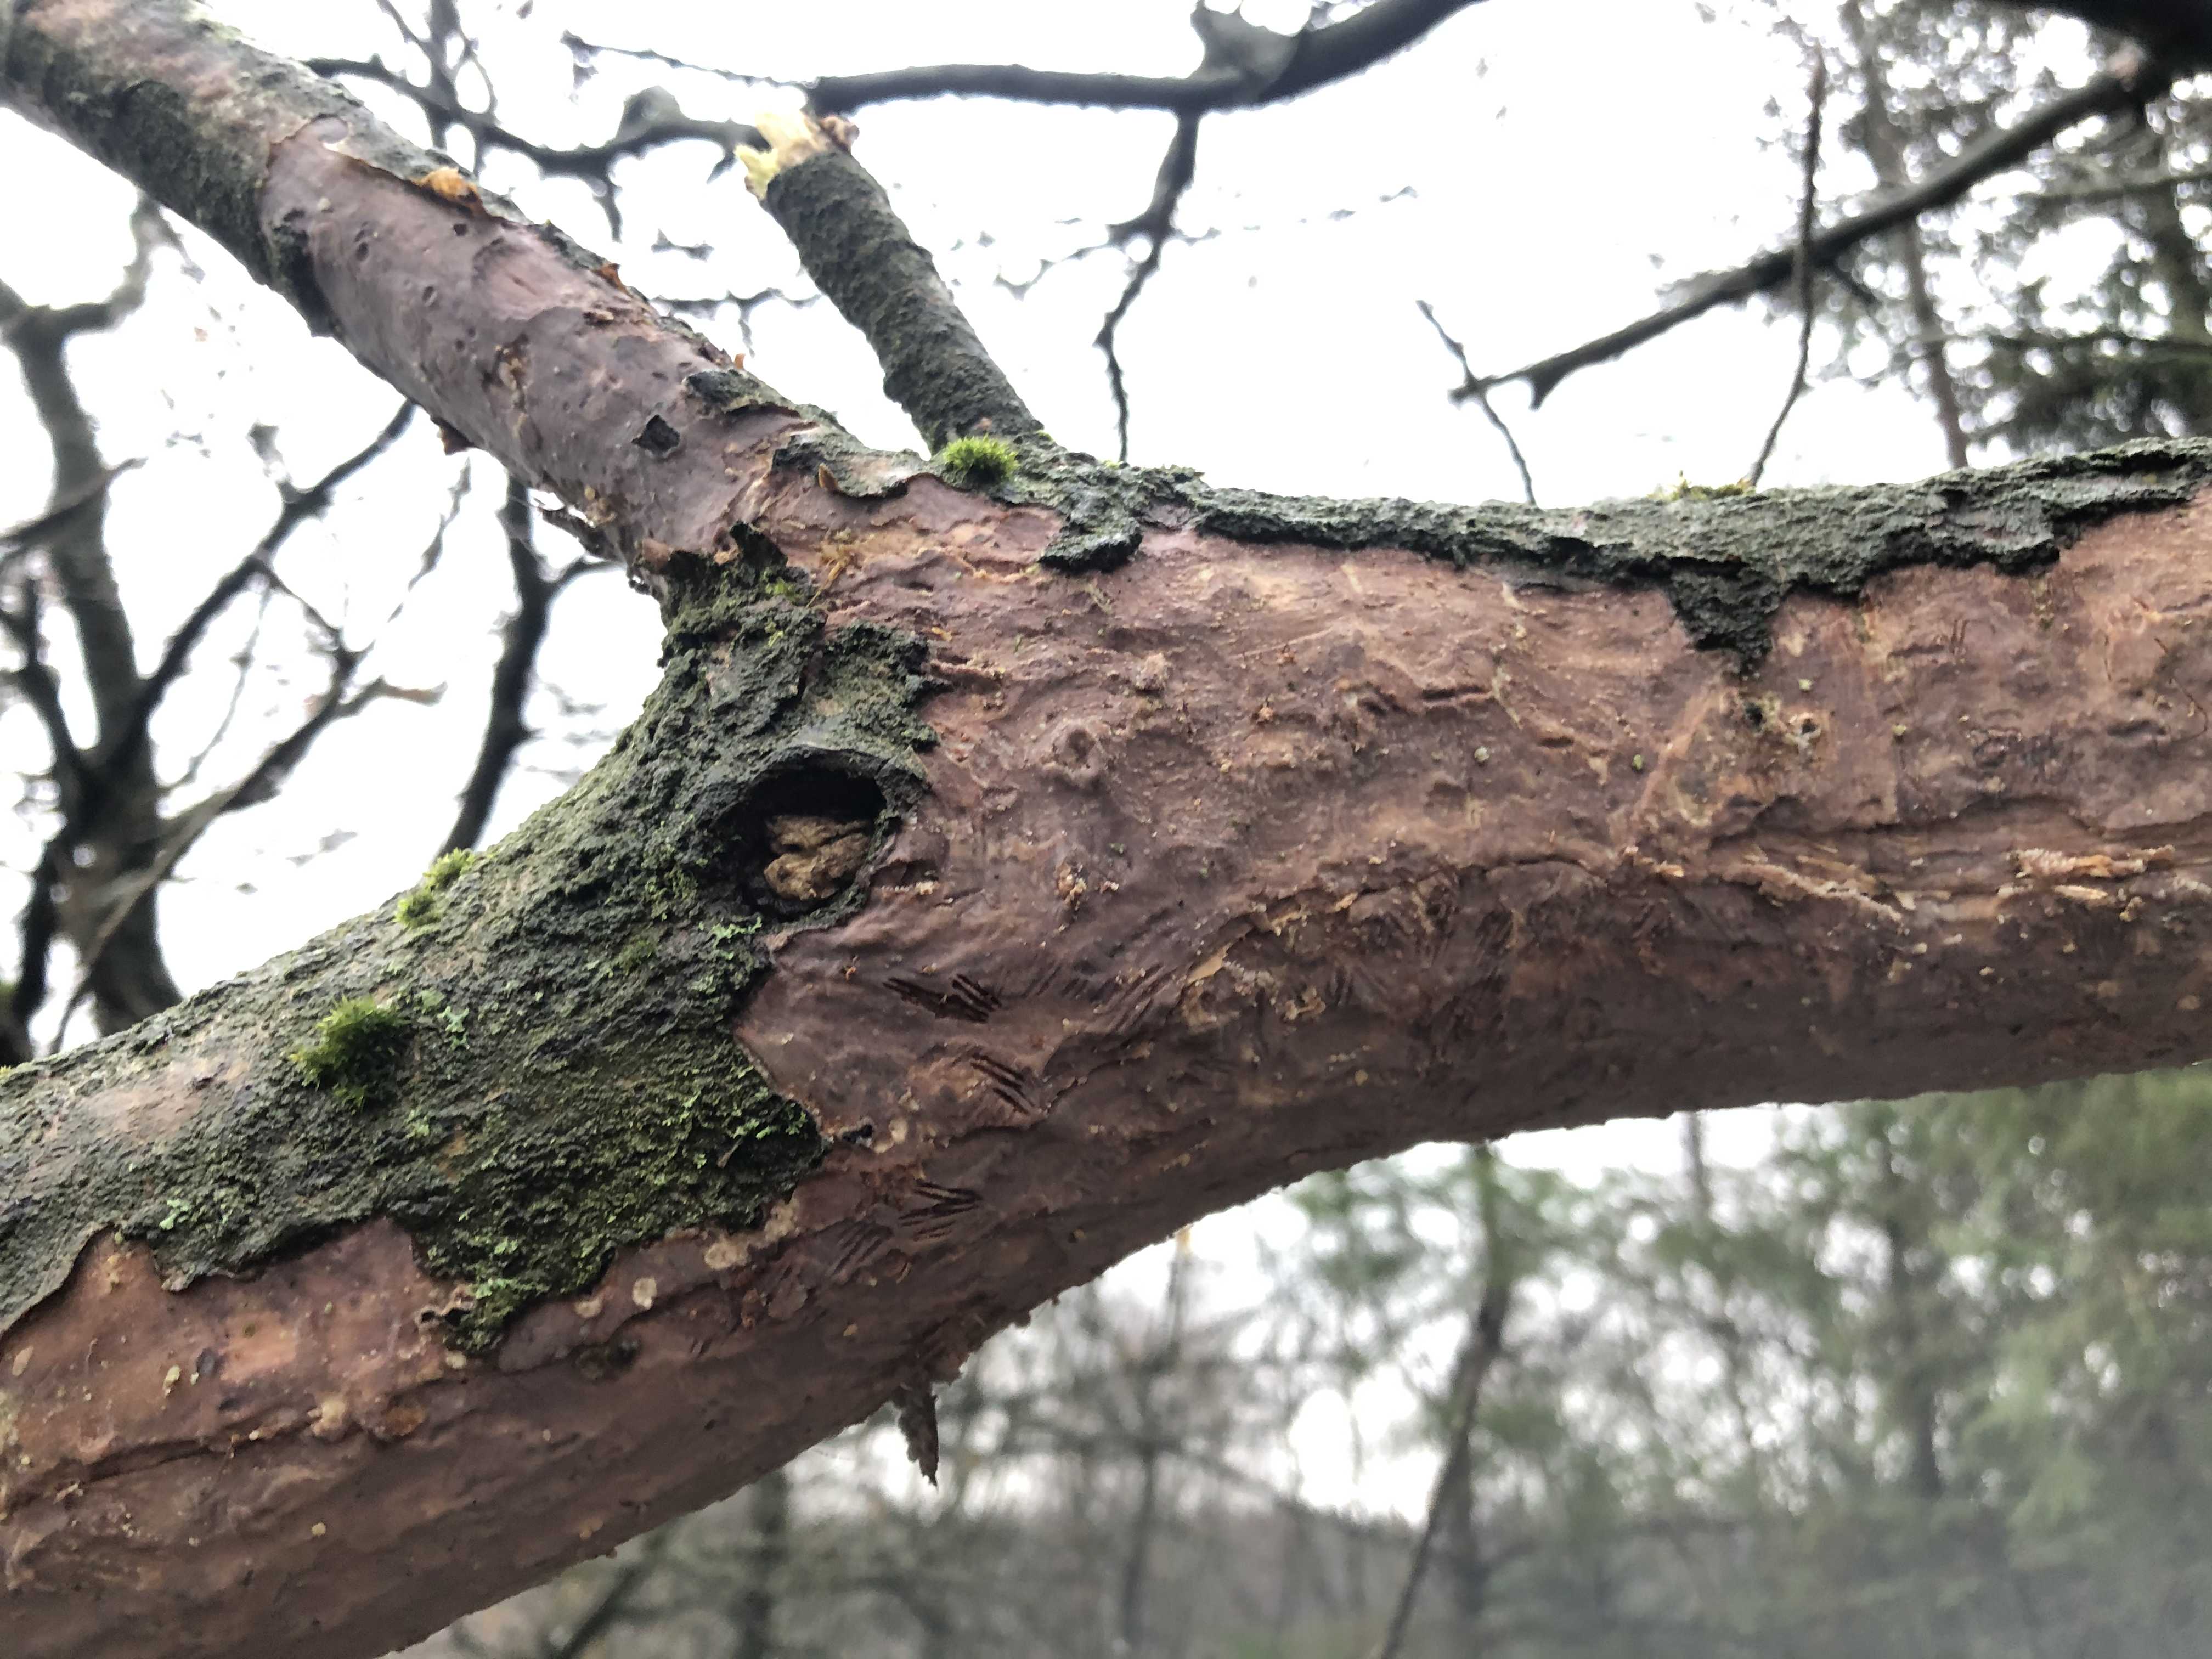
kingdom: Fungi
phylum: Basidiomycota
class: Agaricomycetes
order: Corticiales
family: Vuilleminiaceae
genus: Vuilleminia
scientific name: Vuilleminia comedens
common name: almindelig barksprænger
